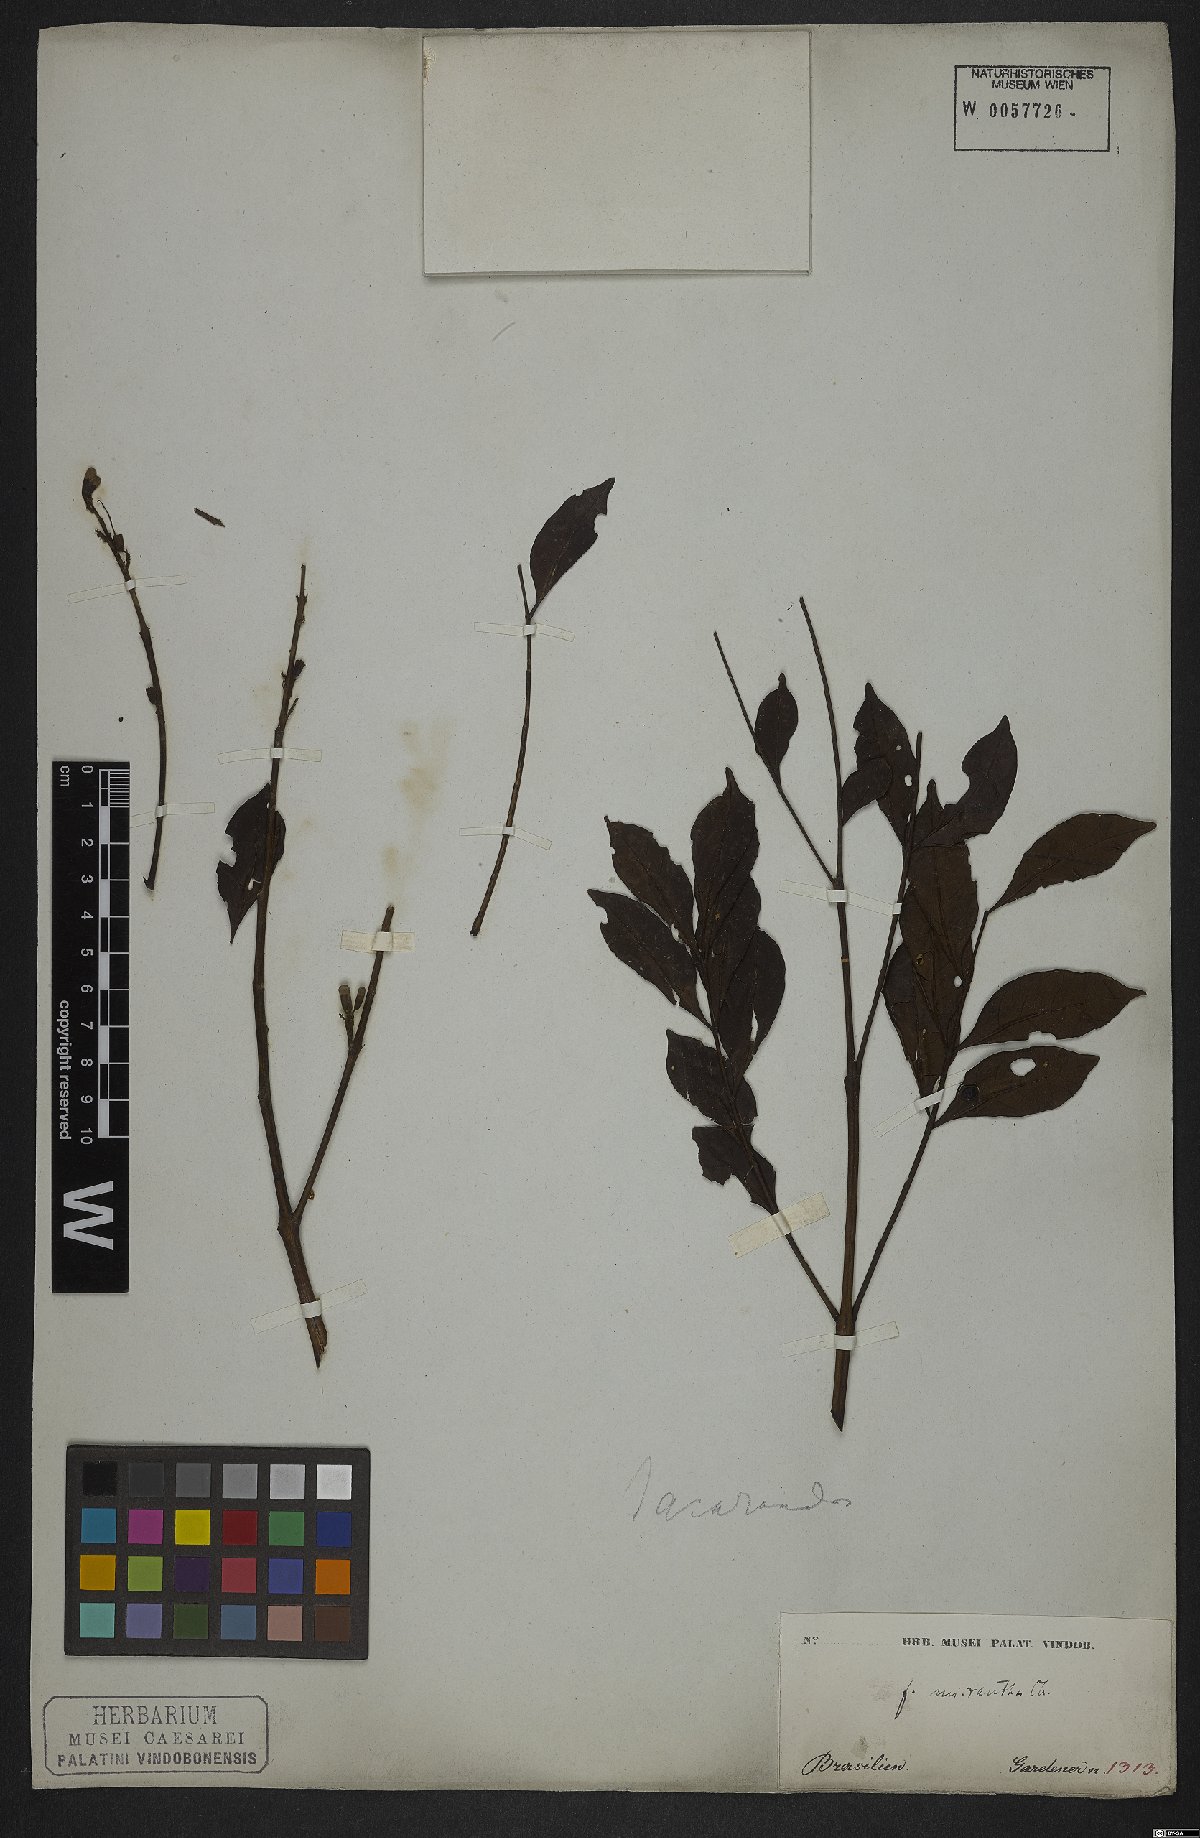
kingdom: Plantae
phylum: Tracheophyta
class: Magnoliopsida
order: Lamiales
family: Bignoniaceae
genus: Jacaranda
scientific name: Jacaranda micrantha
